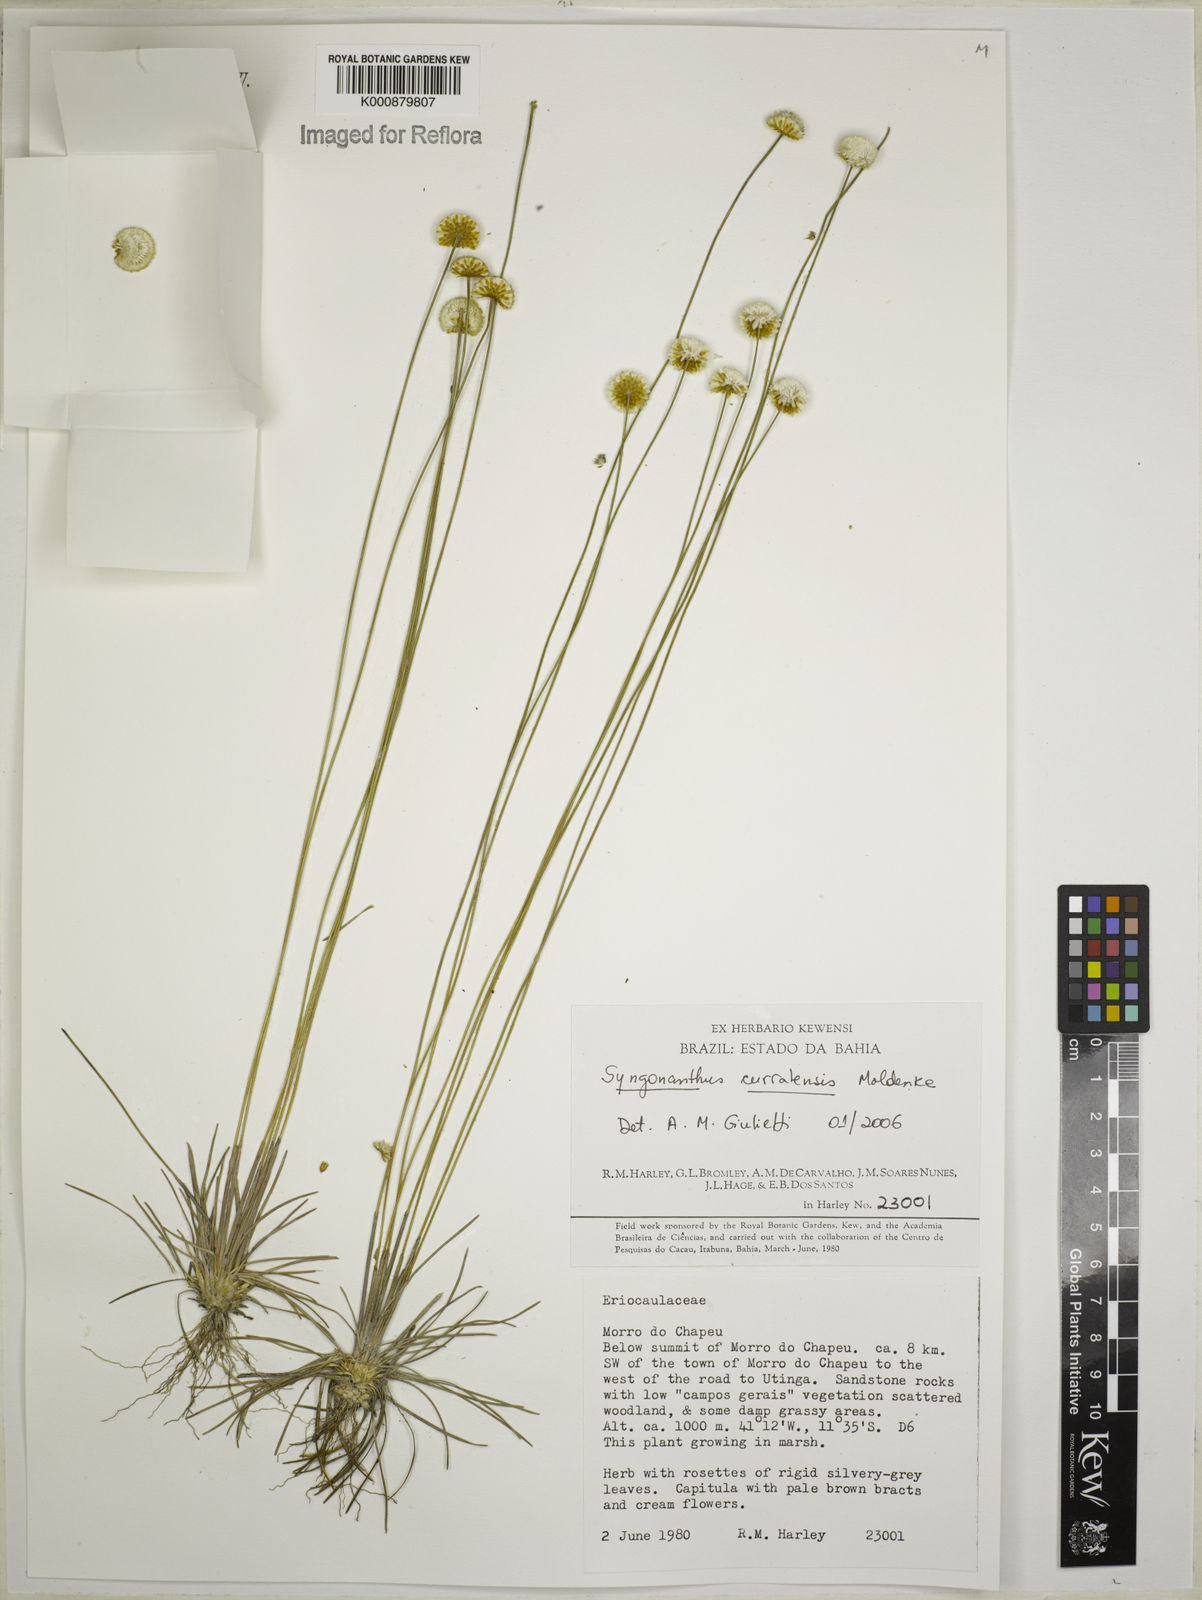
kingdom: Plantae
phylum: Tracheophyta
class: Liliopsida
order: Poales
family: Eriocaulaceae
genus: Comanthera
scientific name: Comanthera curralensis
